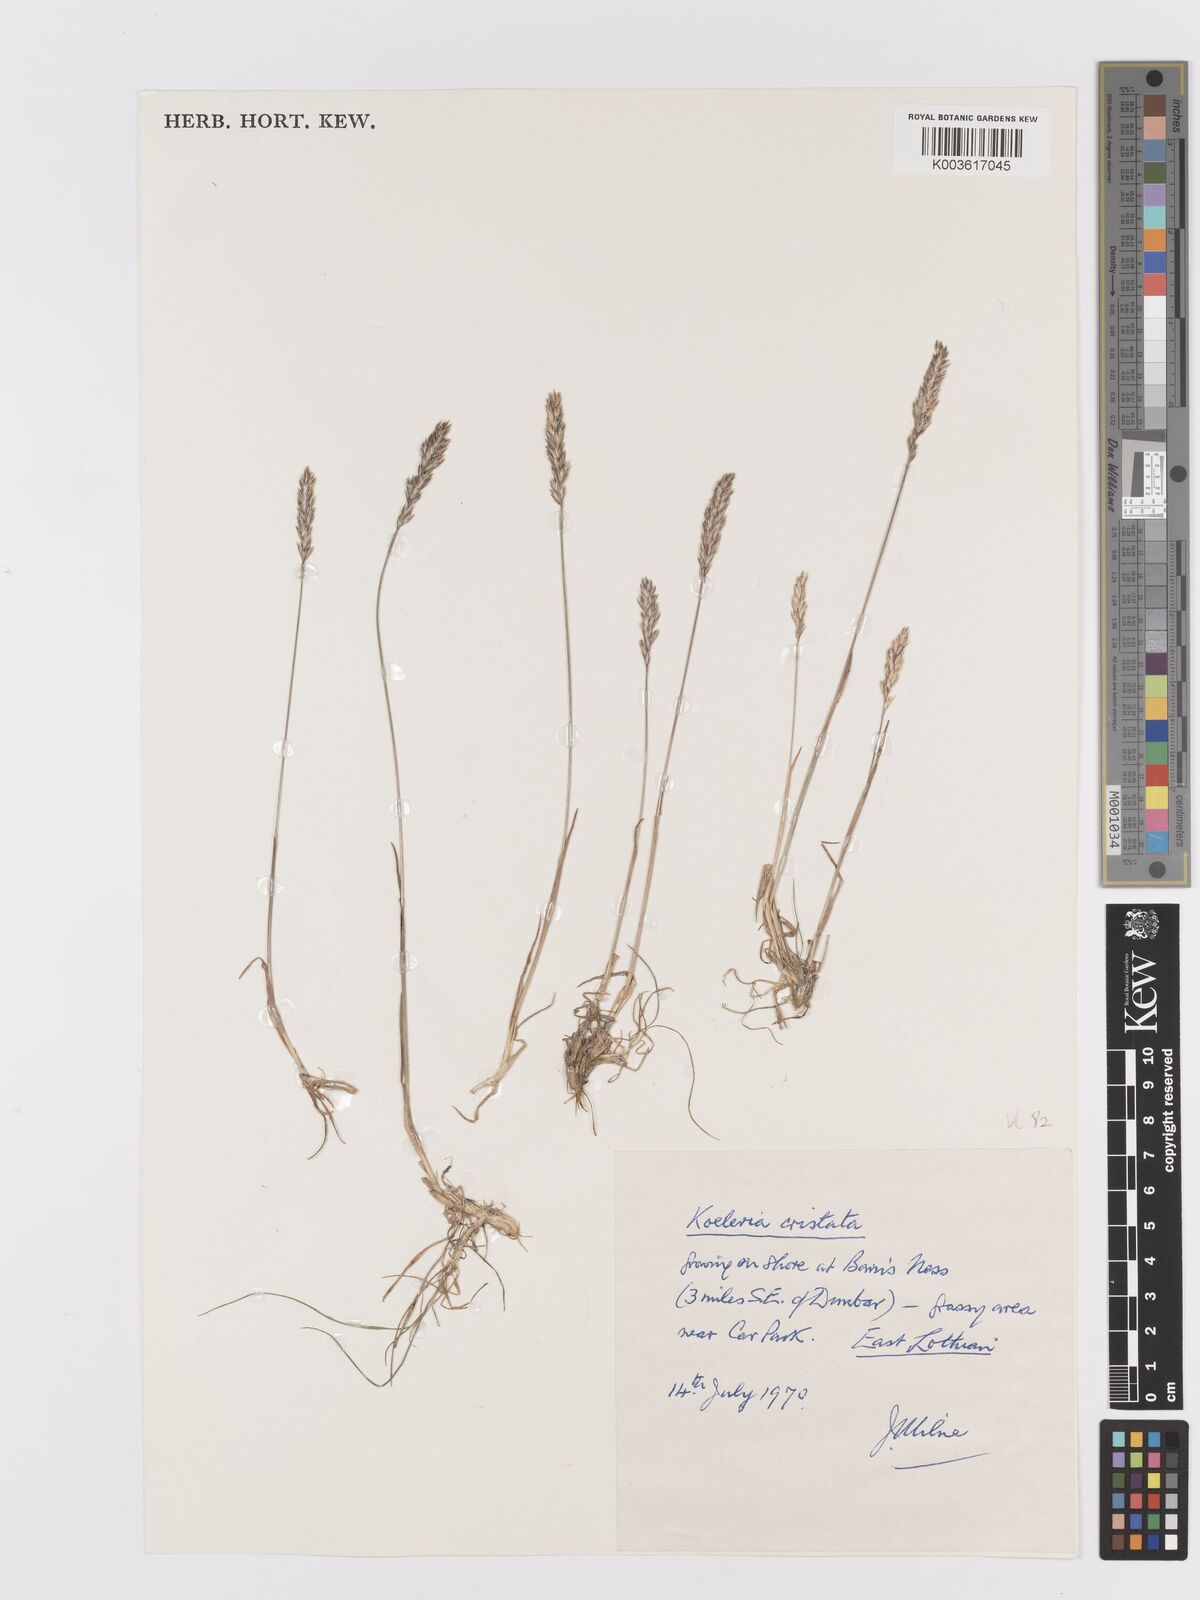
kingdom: Plantae
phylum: Tracheophyta
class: Liliopsida
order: Poales
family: Poaceae
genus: Koeleria
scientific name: Koeleria nitidula
